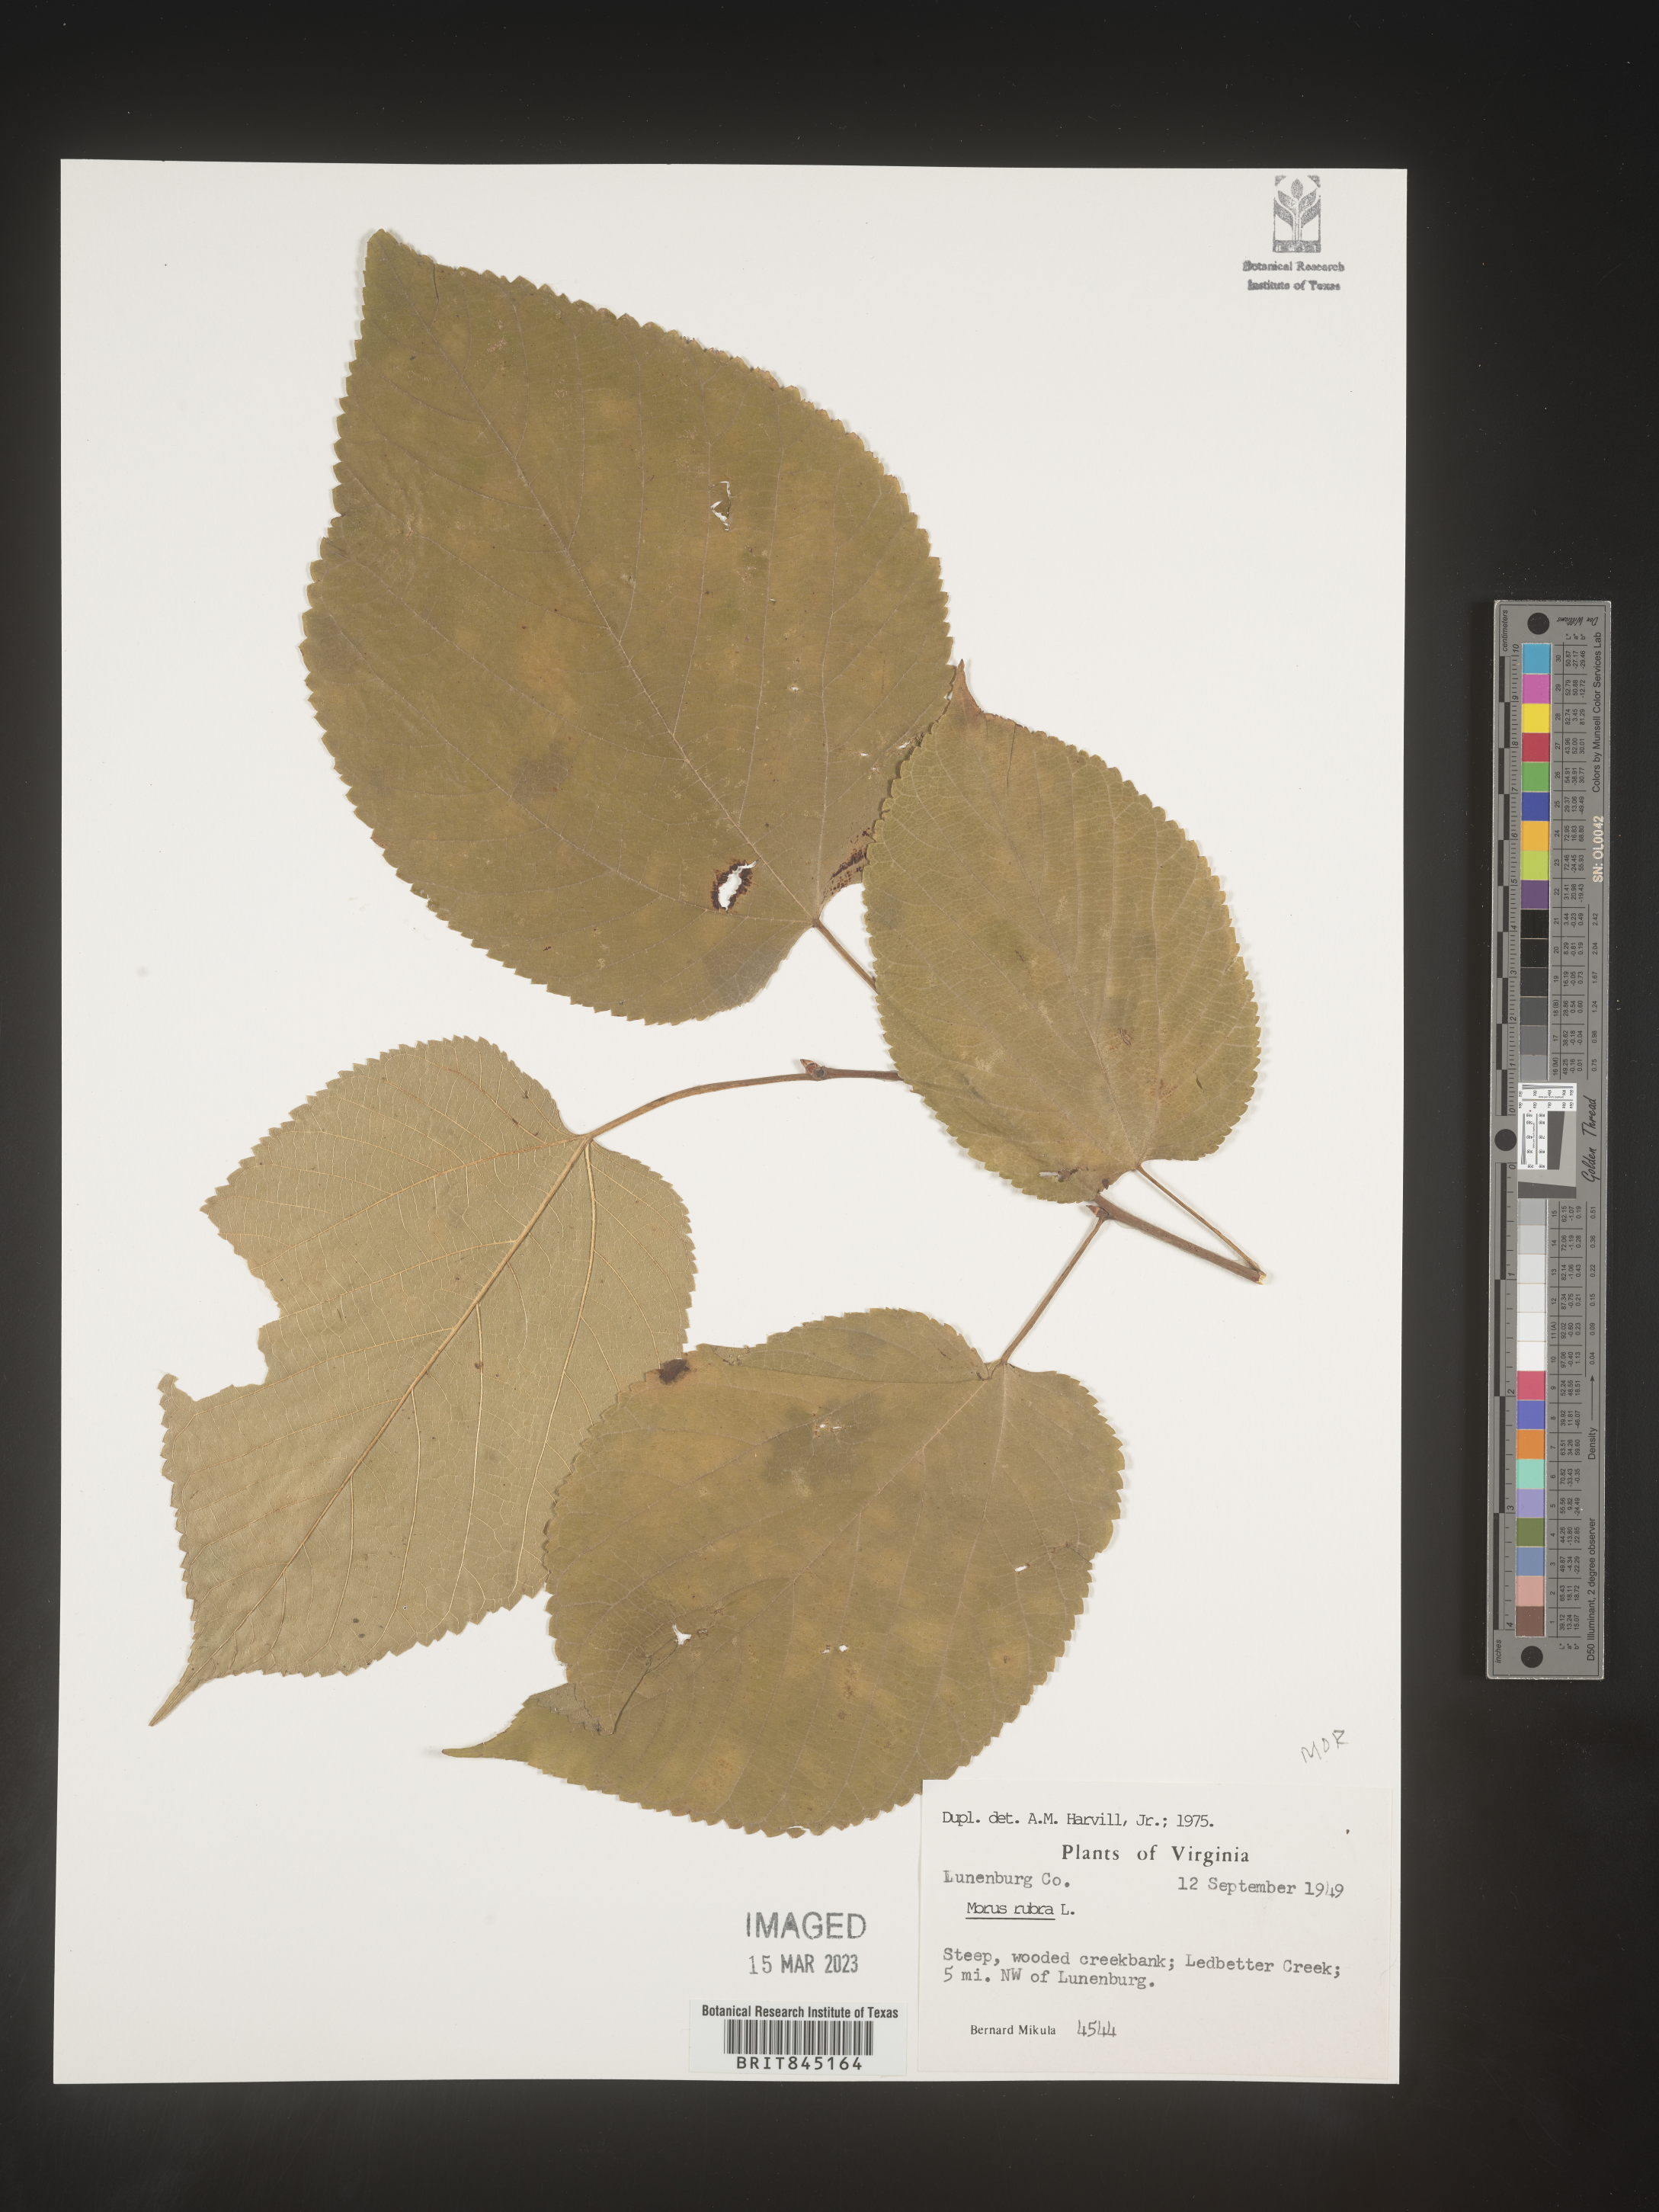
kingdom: Plantae
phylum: Tracheophyta
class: Magnoliopsida
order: Rosales
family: Moraceae
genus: Morus
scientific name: Morus rubra
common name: Red mulberry
